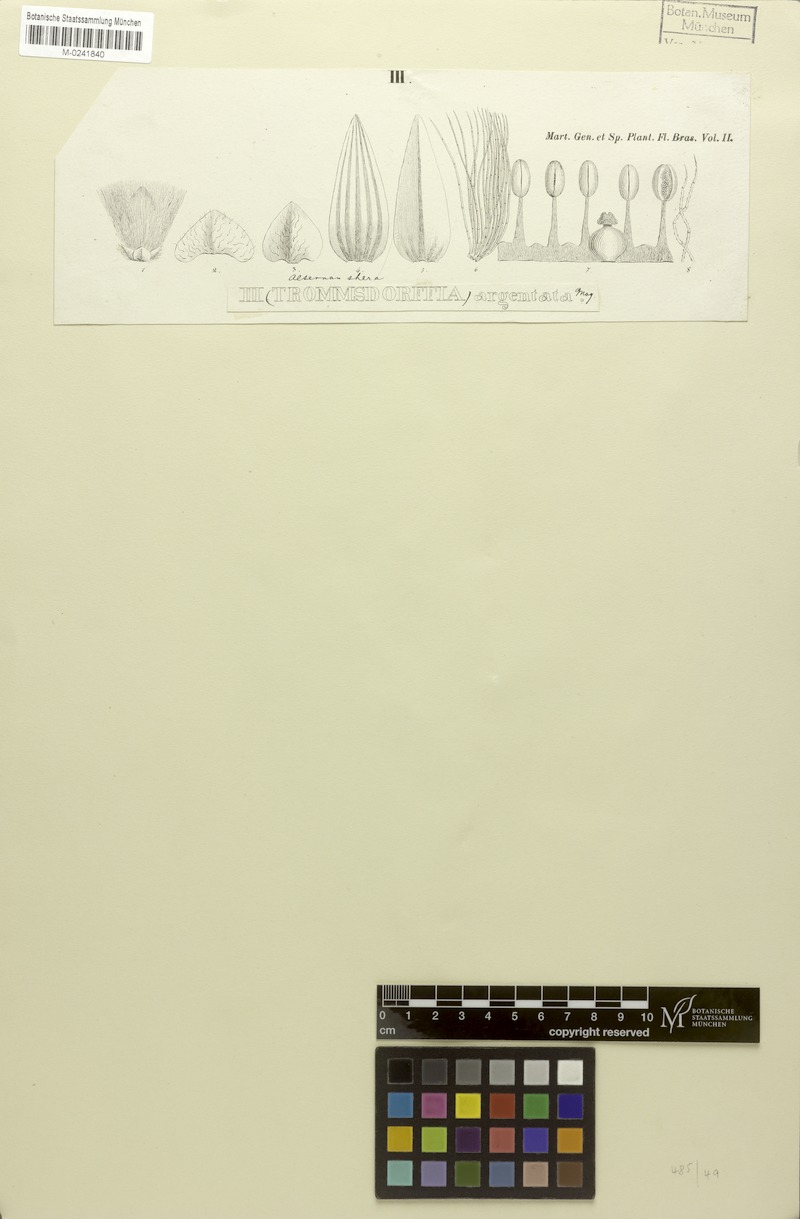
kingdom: Plantae
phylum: Tracheophyta
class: Magnoliopsida
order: Caryophyllales
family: Amaranthaceae
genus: Pedersenia
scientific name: Pedersenia argentata
